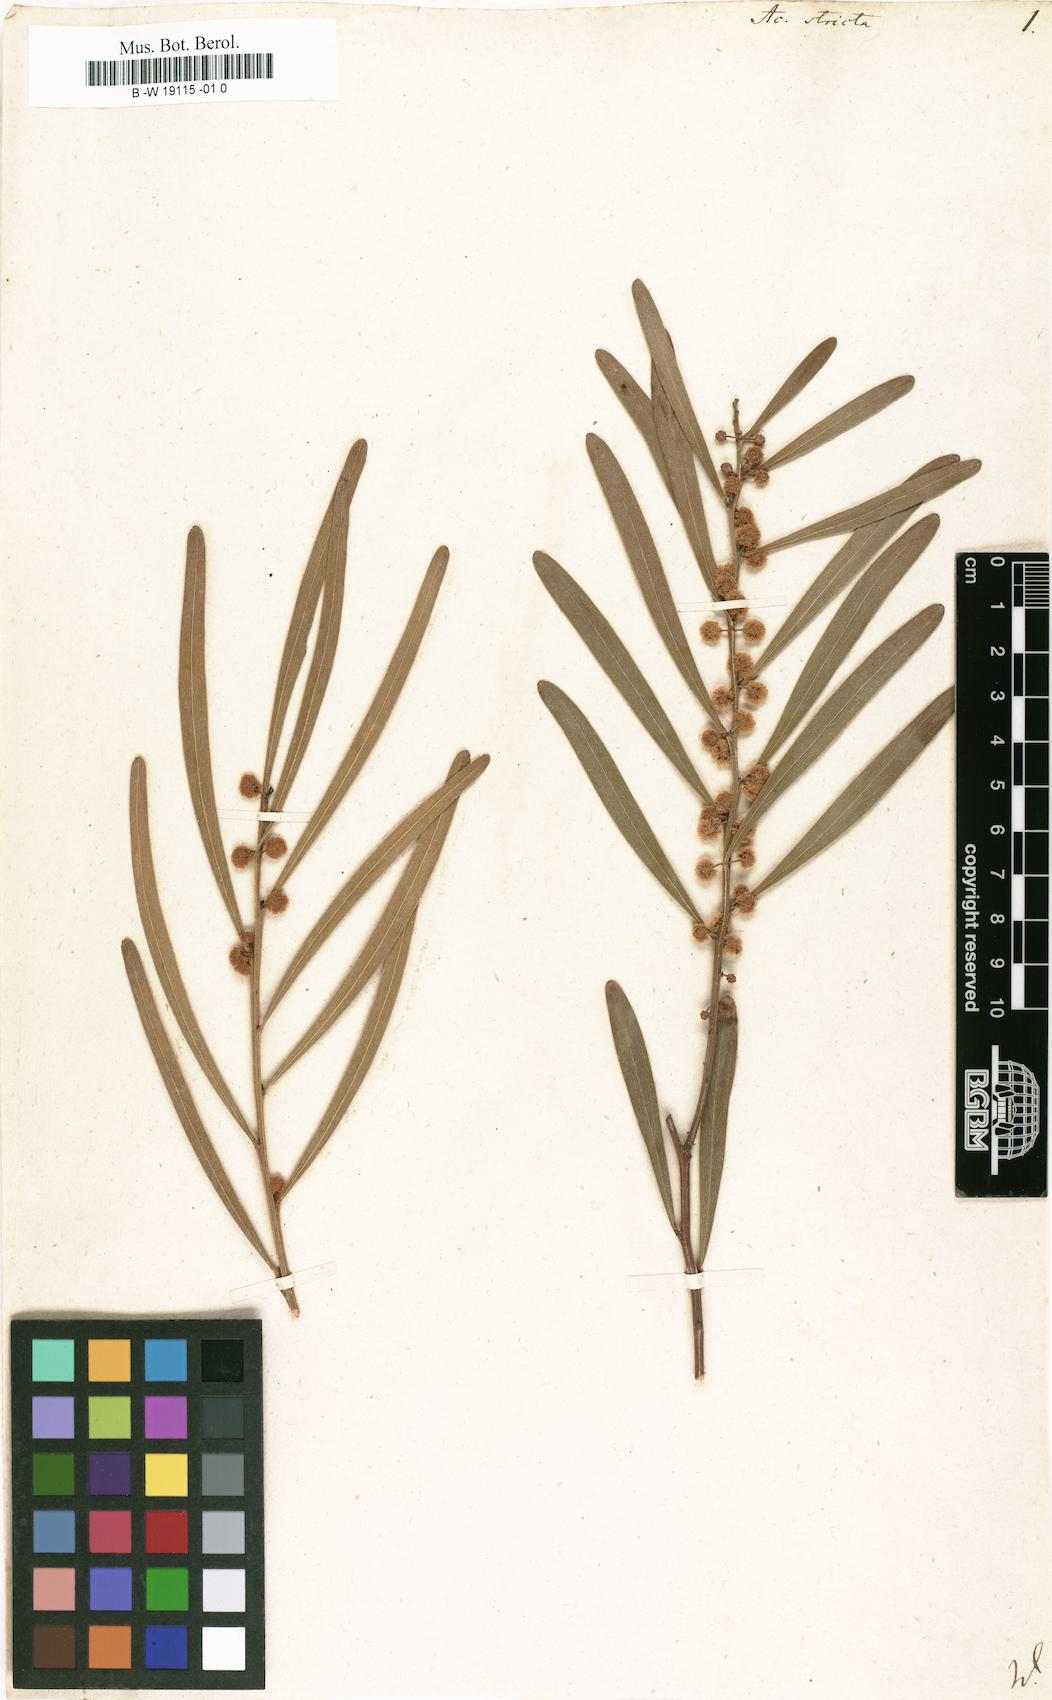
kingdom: Plantae
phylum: Tracheophyta
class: Magnoliopsida
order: Fabales
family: Fabaceae
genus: Acacia
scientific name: Acacia stricta
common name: Hop wattle
